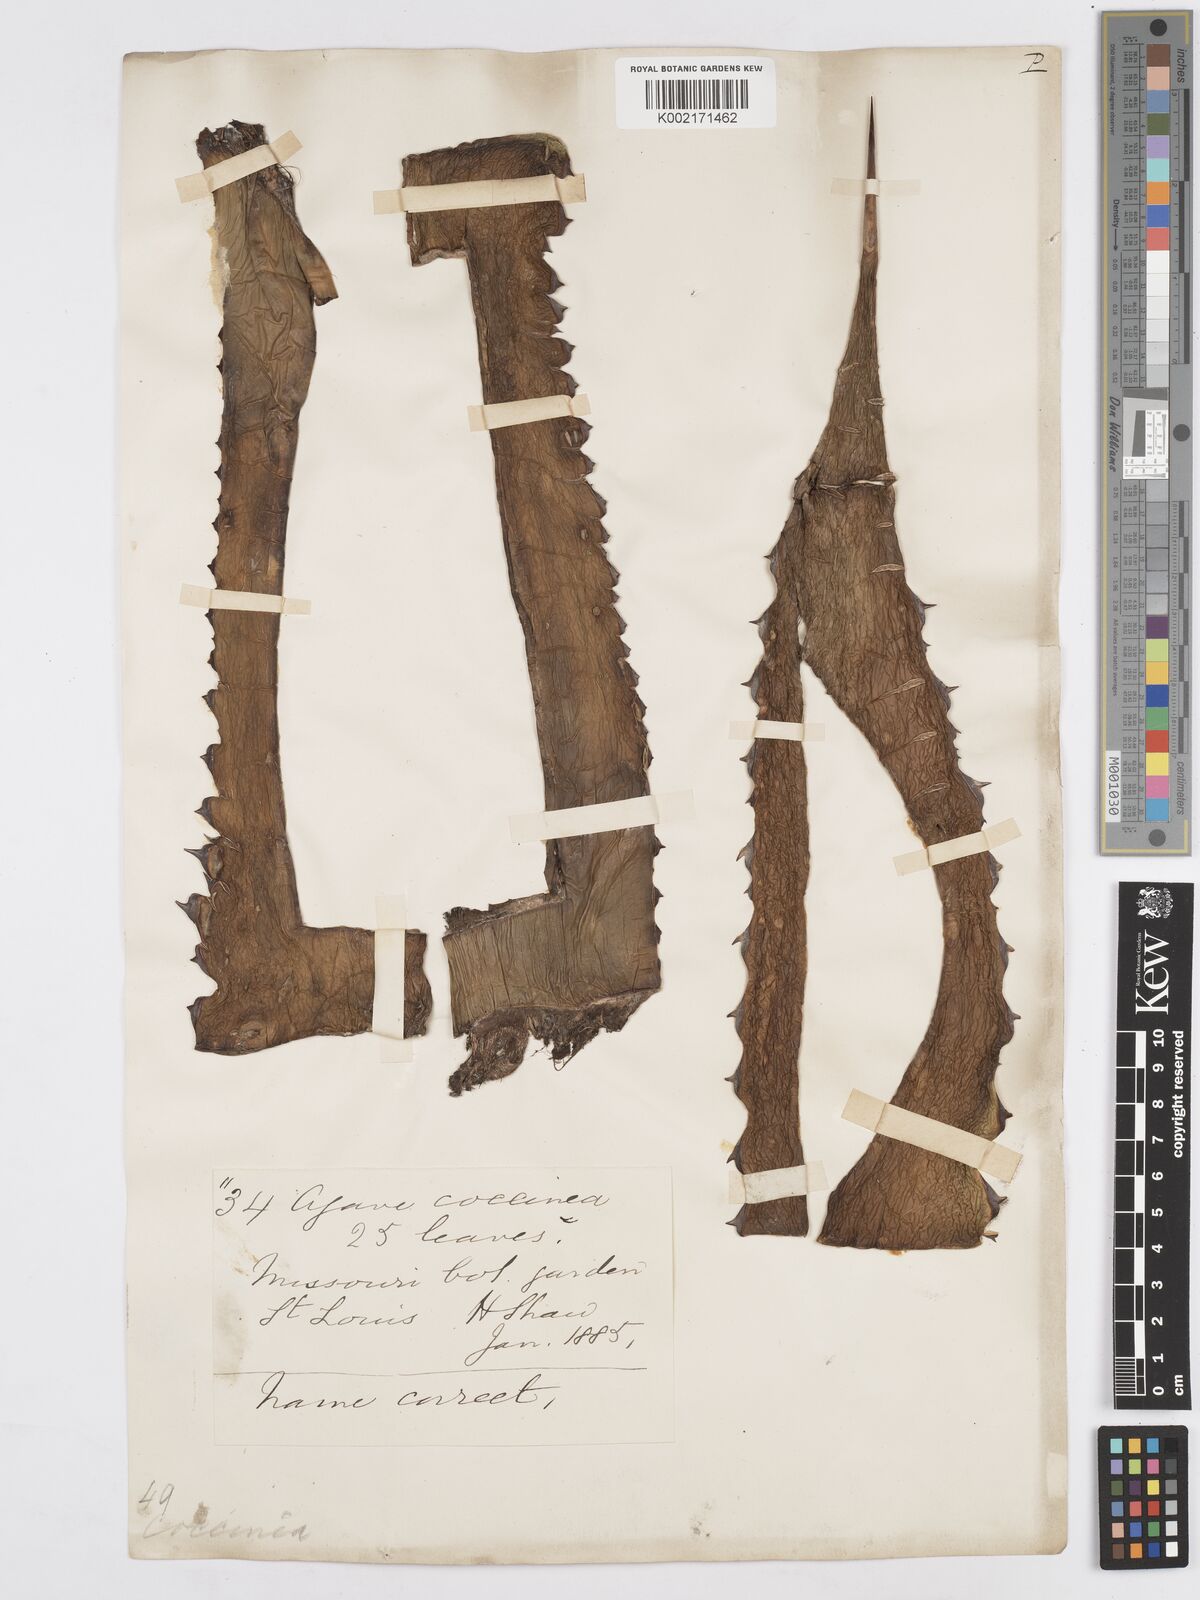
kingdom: Plantae
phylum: Tracheophyta
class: Liliopsida
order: Asparagales
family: Asparagaceae
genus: Agave
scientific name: Agave atrovirens
